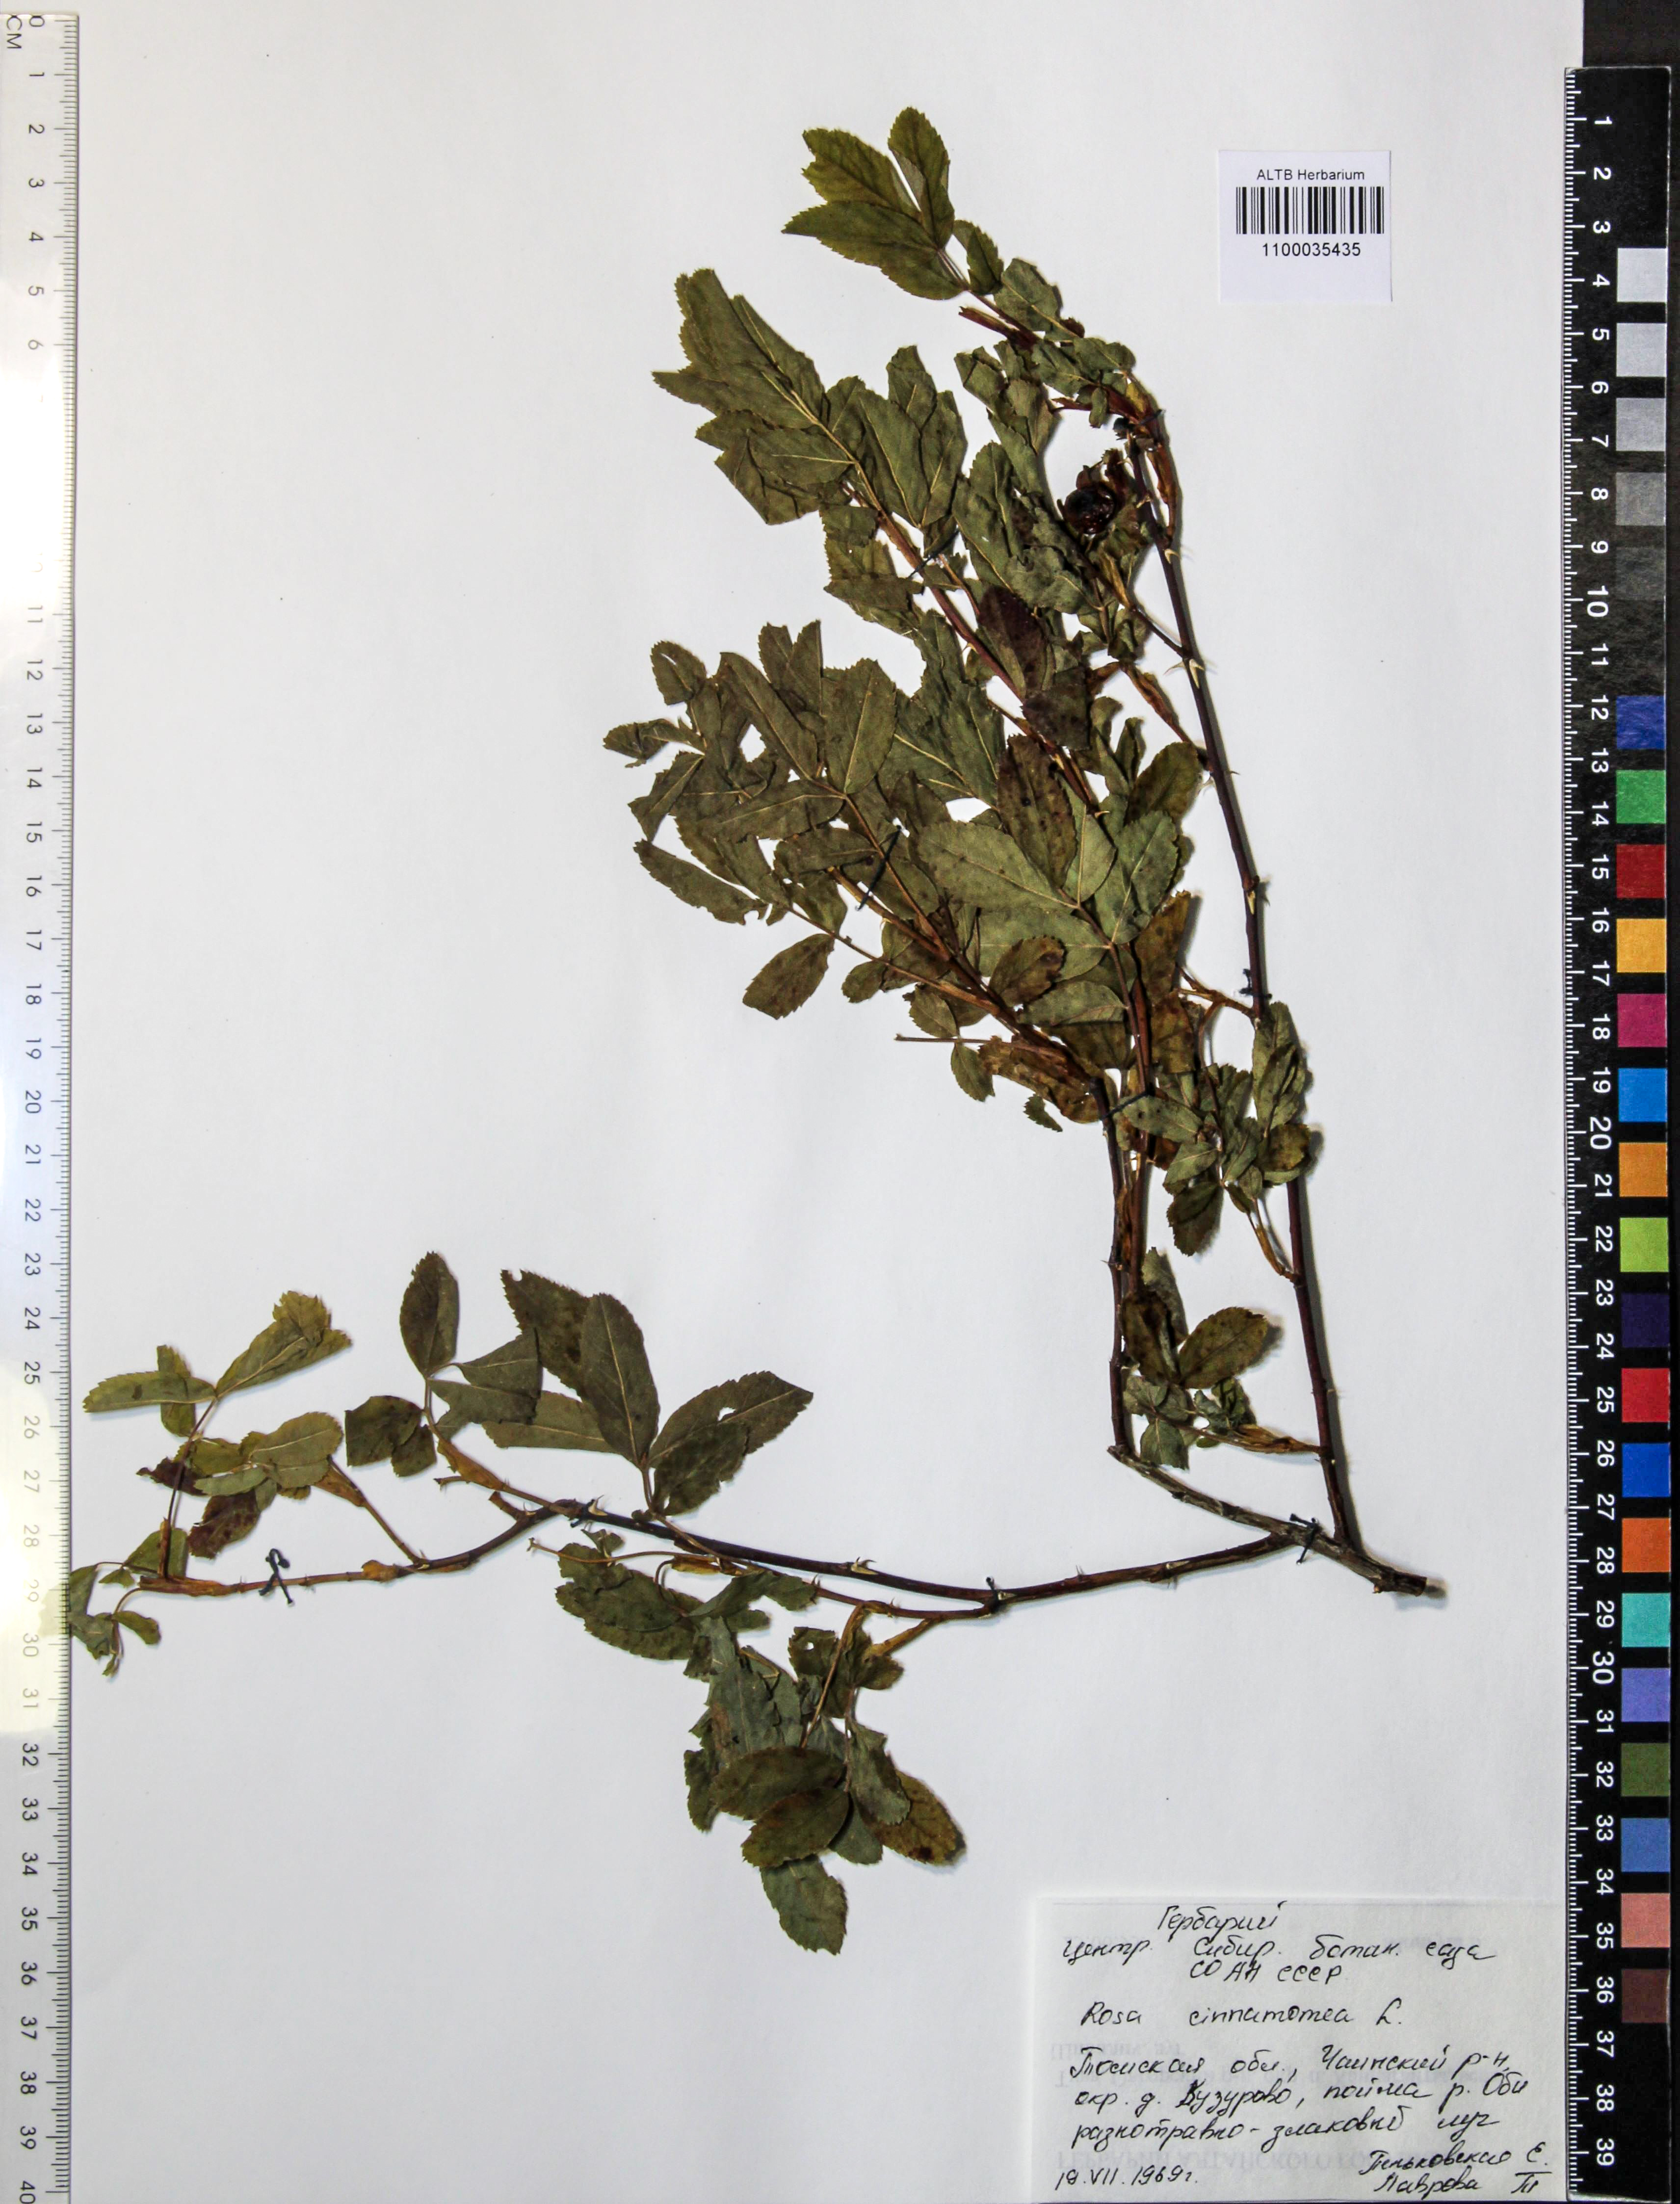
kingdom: Plantae
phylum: Tracheophyta
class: Magnoliopsida
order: Rosales
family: Rosaceae
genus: Rosa
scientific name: Rosa pendulina
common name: Alpine rose
